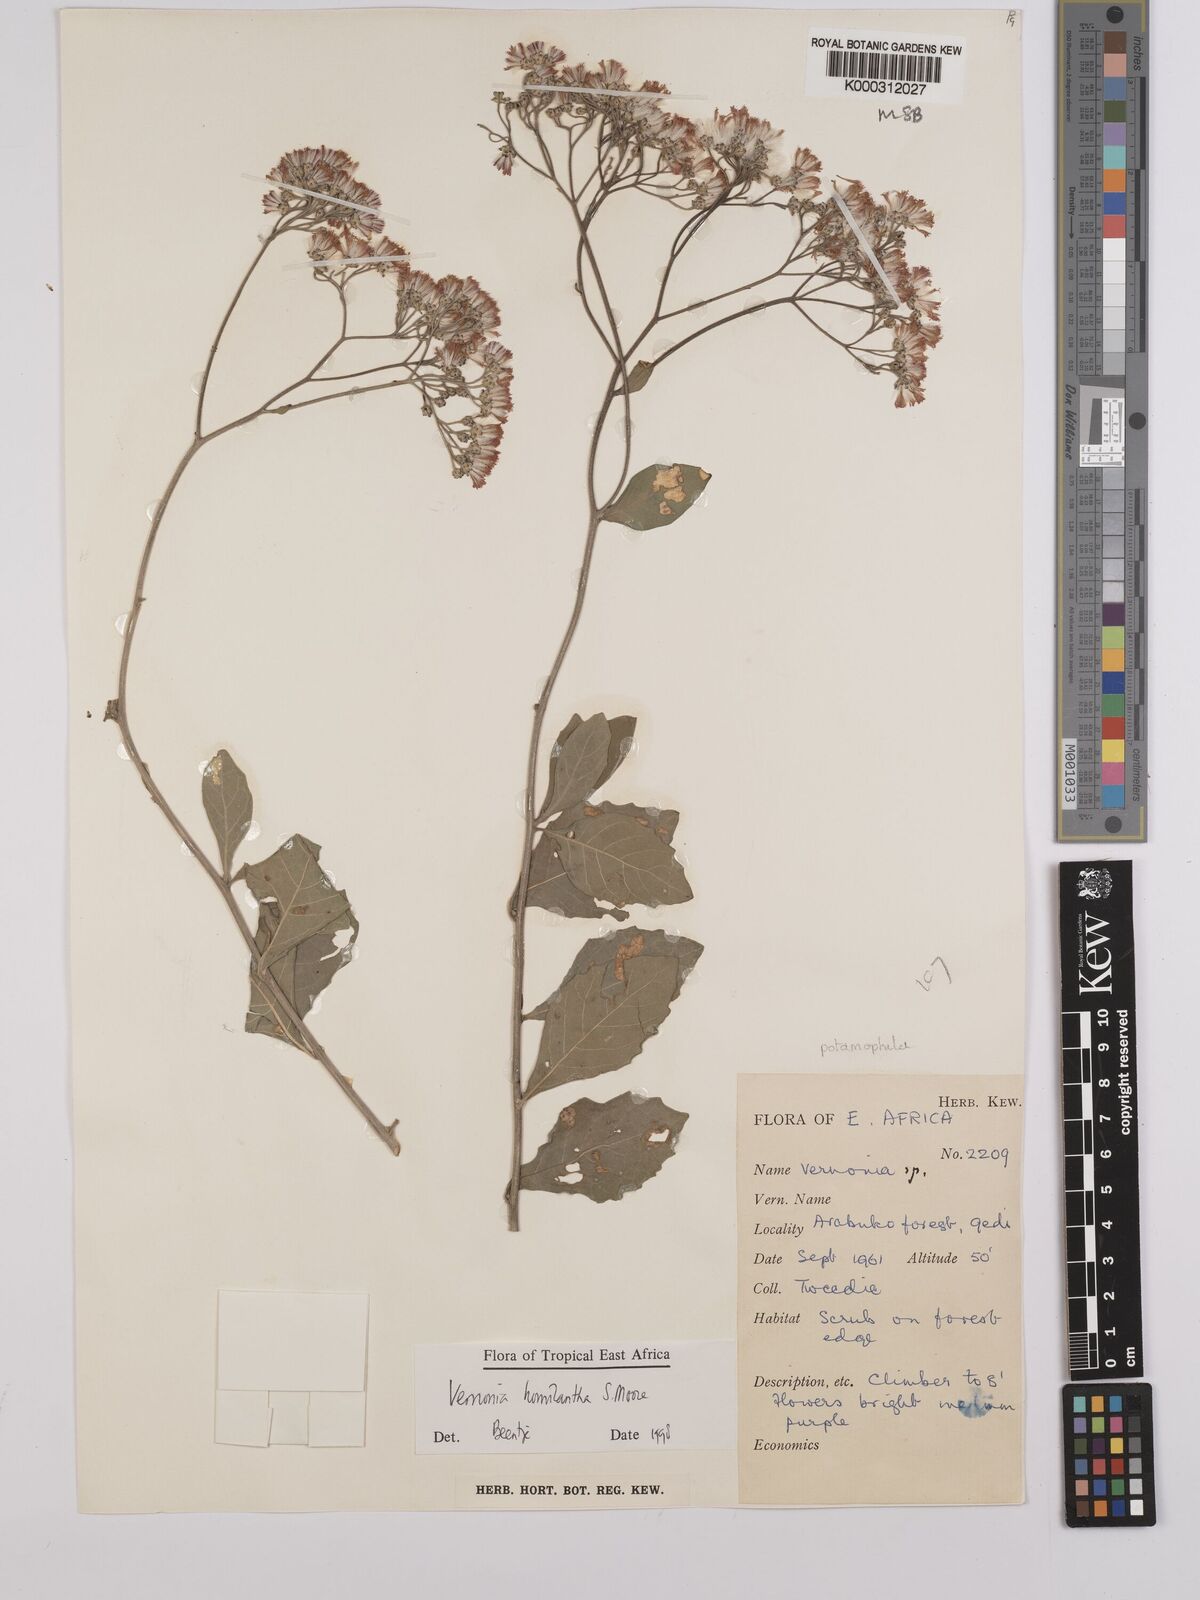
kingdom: Plantae
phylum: Tracheophyta
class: Magnoliopsida
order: Asterales
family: Asteraceae
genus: Orbivestus
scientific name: Orbivestus homilanthus
